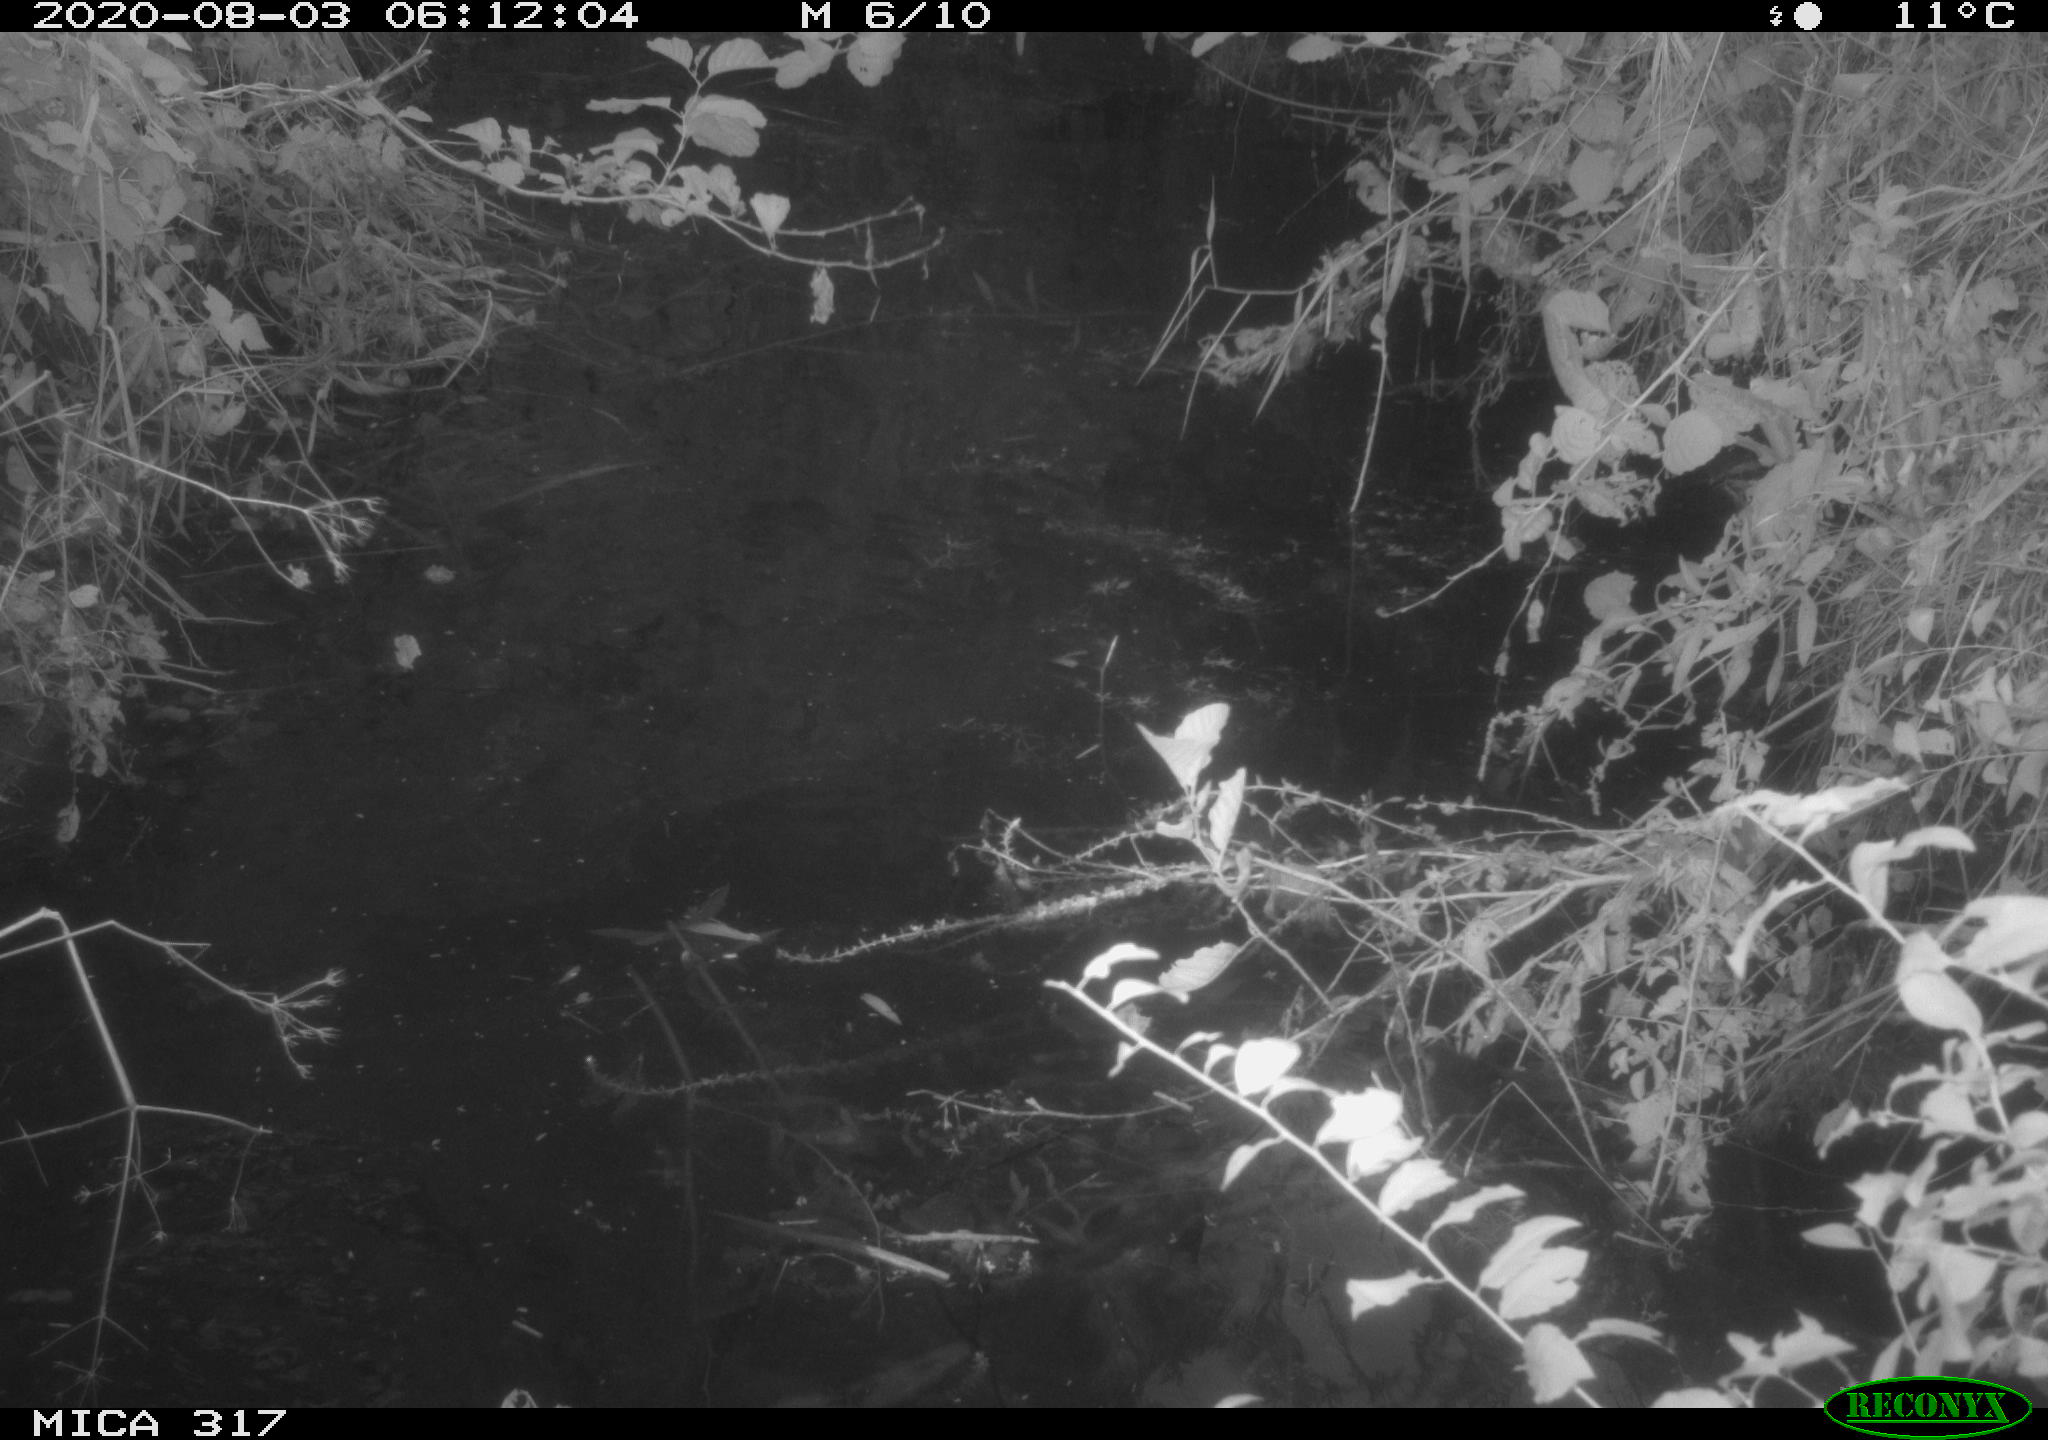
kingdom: Animalia
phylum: Chordata
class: Aves
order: Anseriformes
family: Anatidae
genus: Anas
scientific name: Anas platyrhynchos
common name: Mallard
